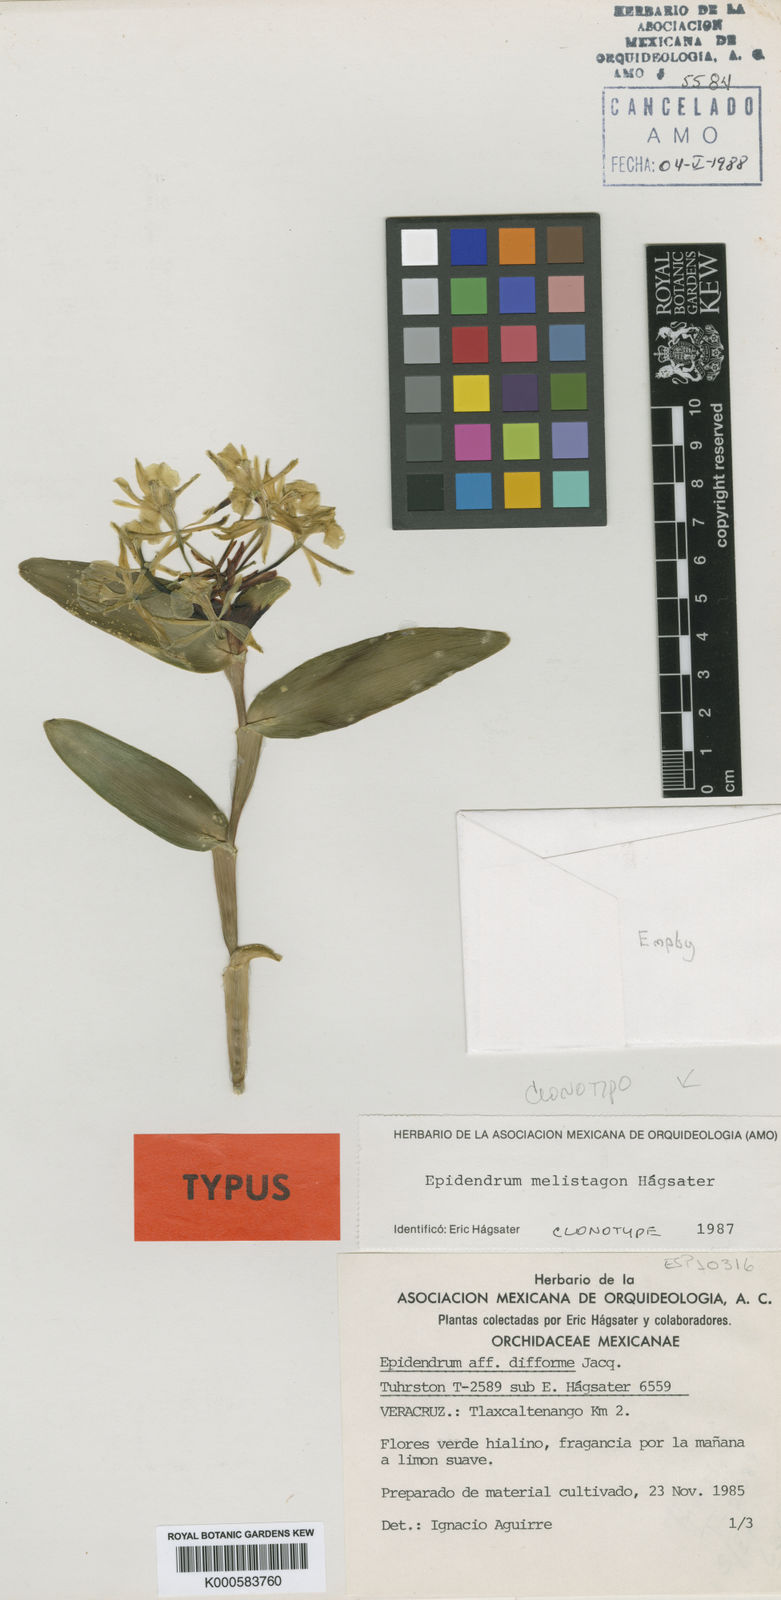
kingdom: Plantae
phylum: Tracheophyta
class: Liliopsida
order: Asparagales
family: Orchidaceae
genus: Epidendrum
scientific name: Epidendrum
